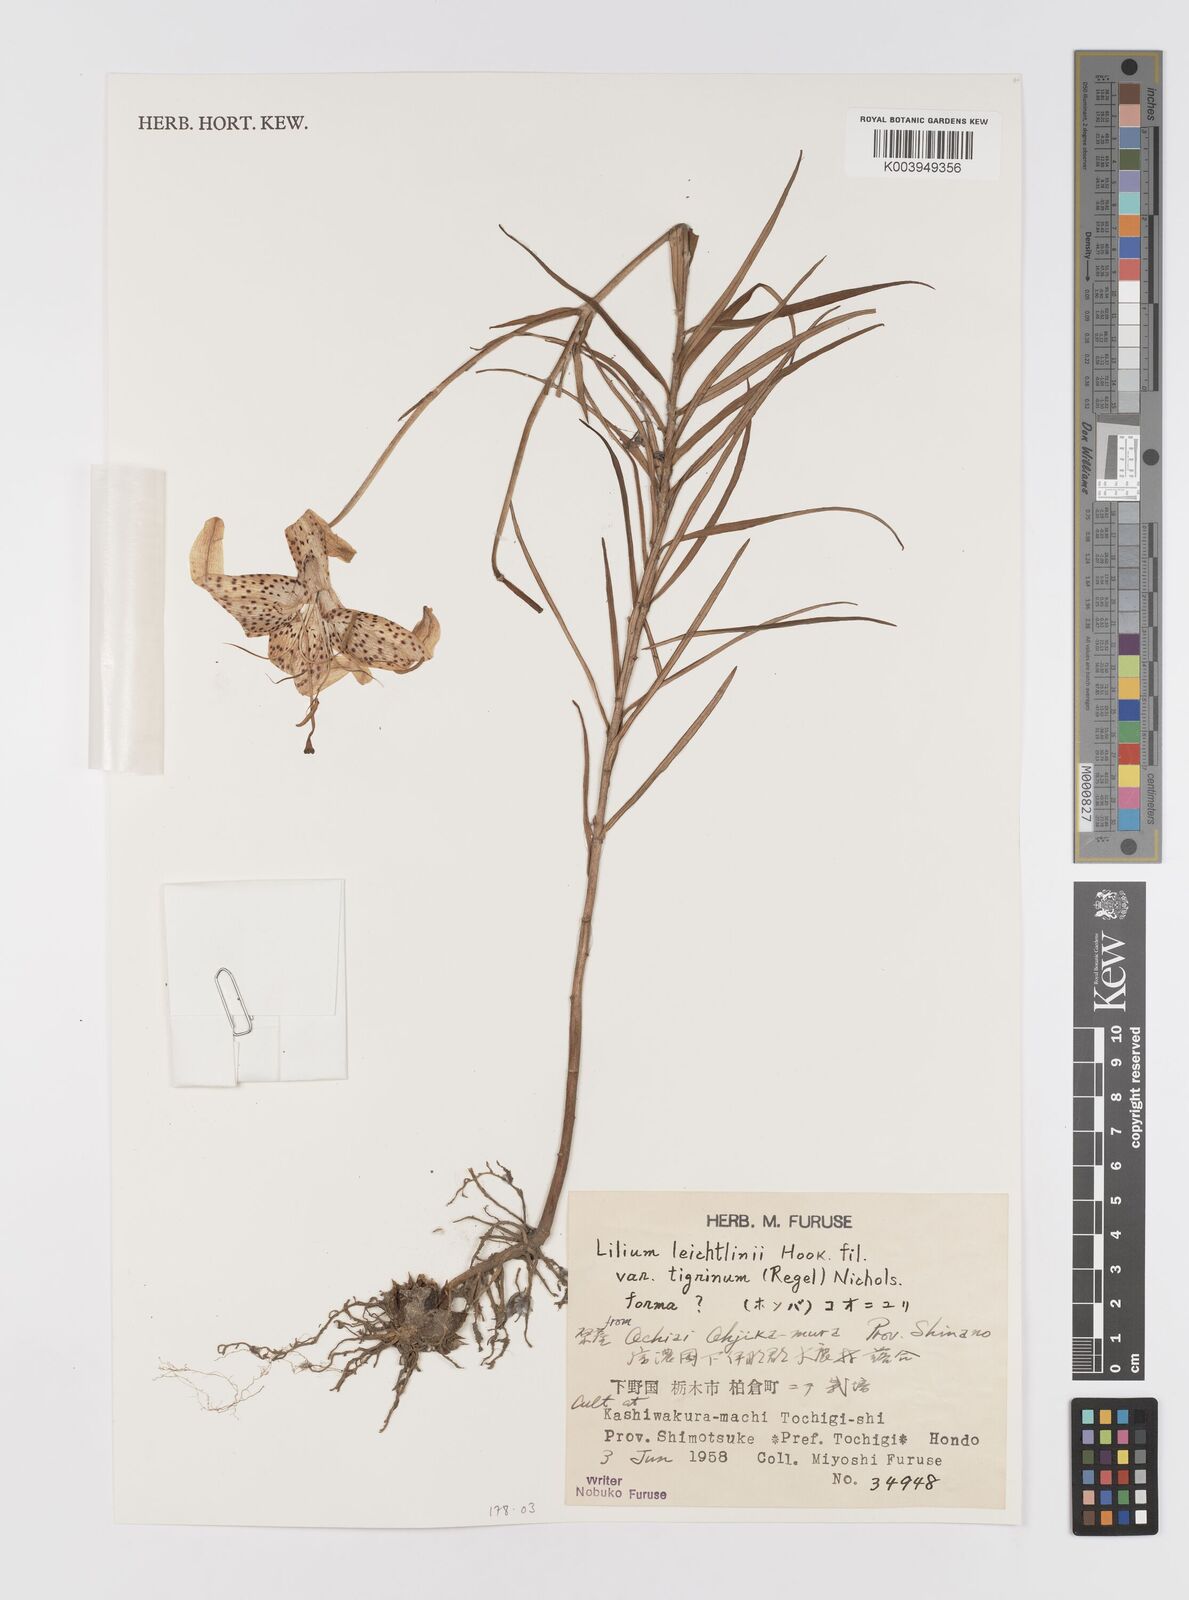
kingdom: Plantae
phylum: Tracheophyta
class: Liliopsida
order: Liliales
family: Liliaceae
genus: Lilium
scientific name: Lilium leichtlinii
